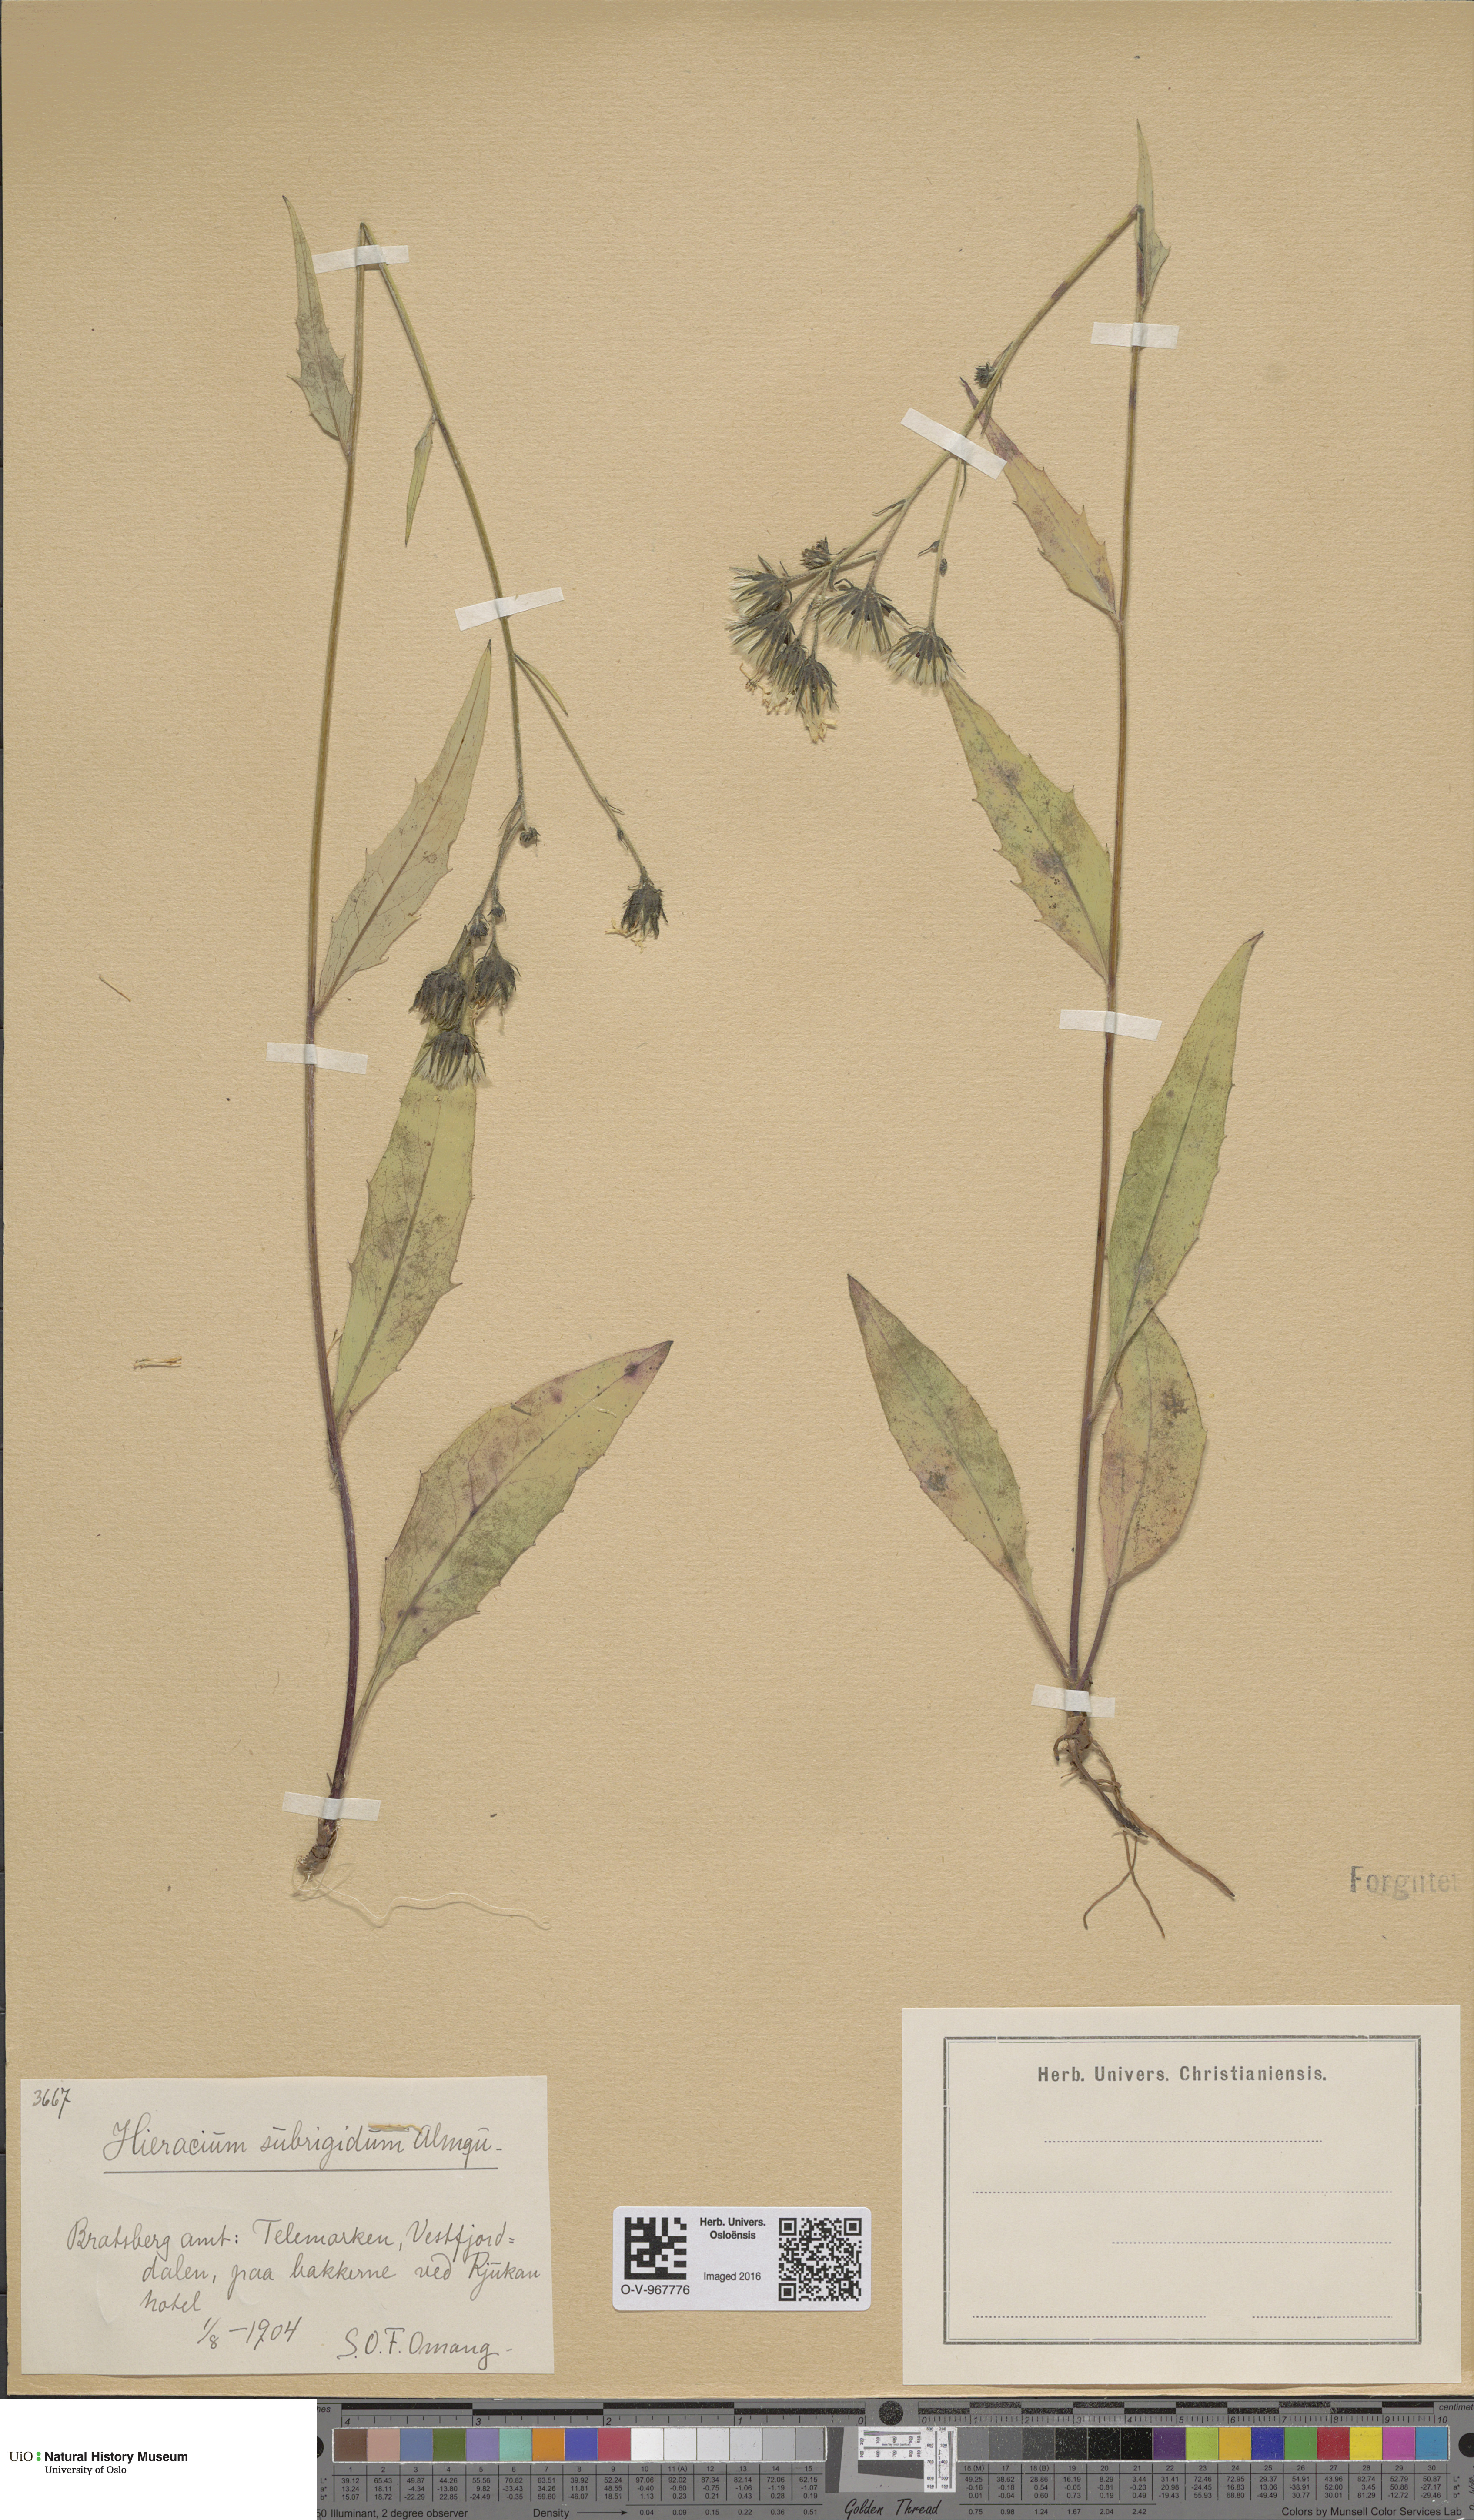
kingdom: Plantae
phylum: Tracheophyta
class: Magnoliopsida
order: Asterales
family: Asteraceae
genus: Hieracium
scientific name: Hieracium subrigidum
